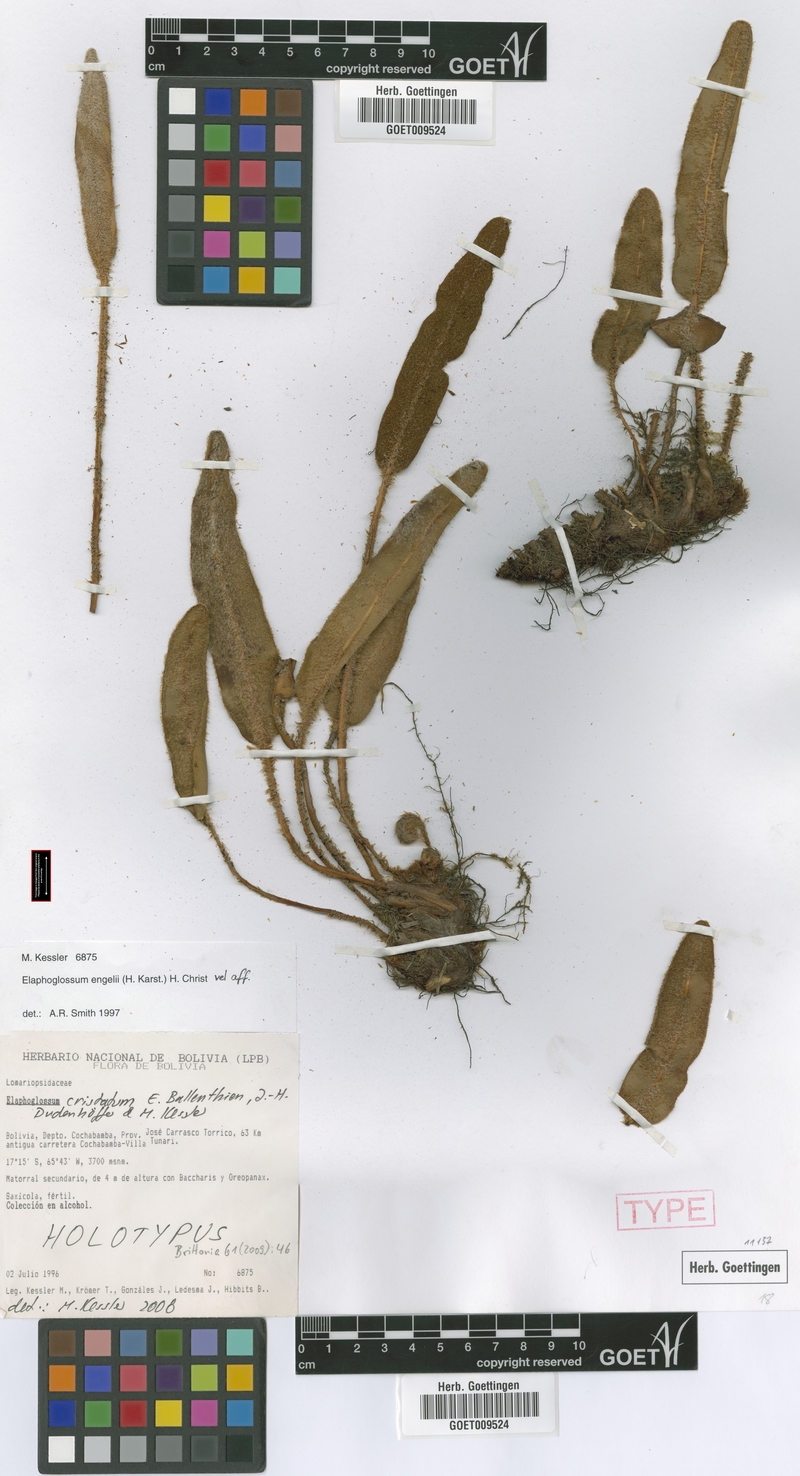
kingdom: Plantae
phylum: Tracheophyta
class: Polypodiopsida
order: Polypodiales
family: Dryopteridaceae
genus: Elaphoglossum
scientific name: Elaphoglossum engelii
